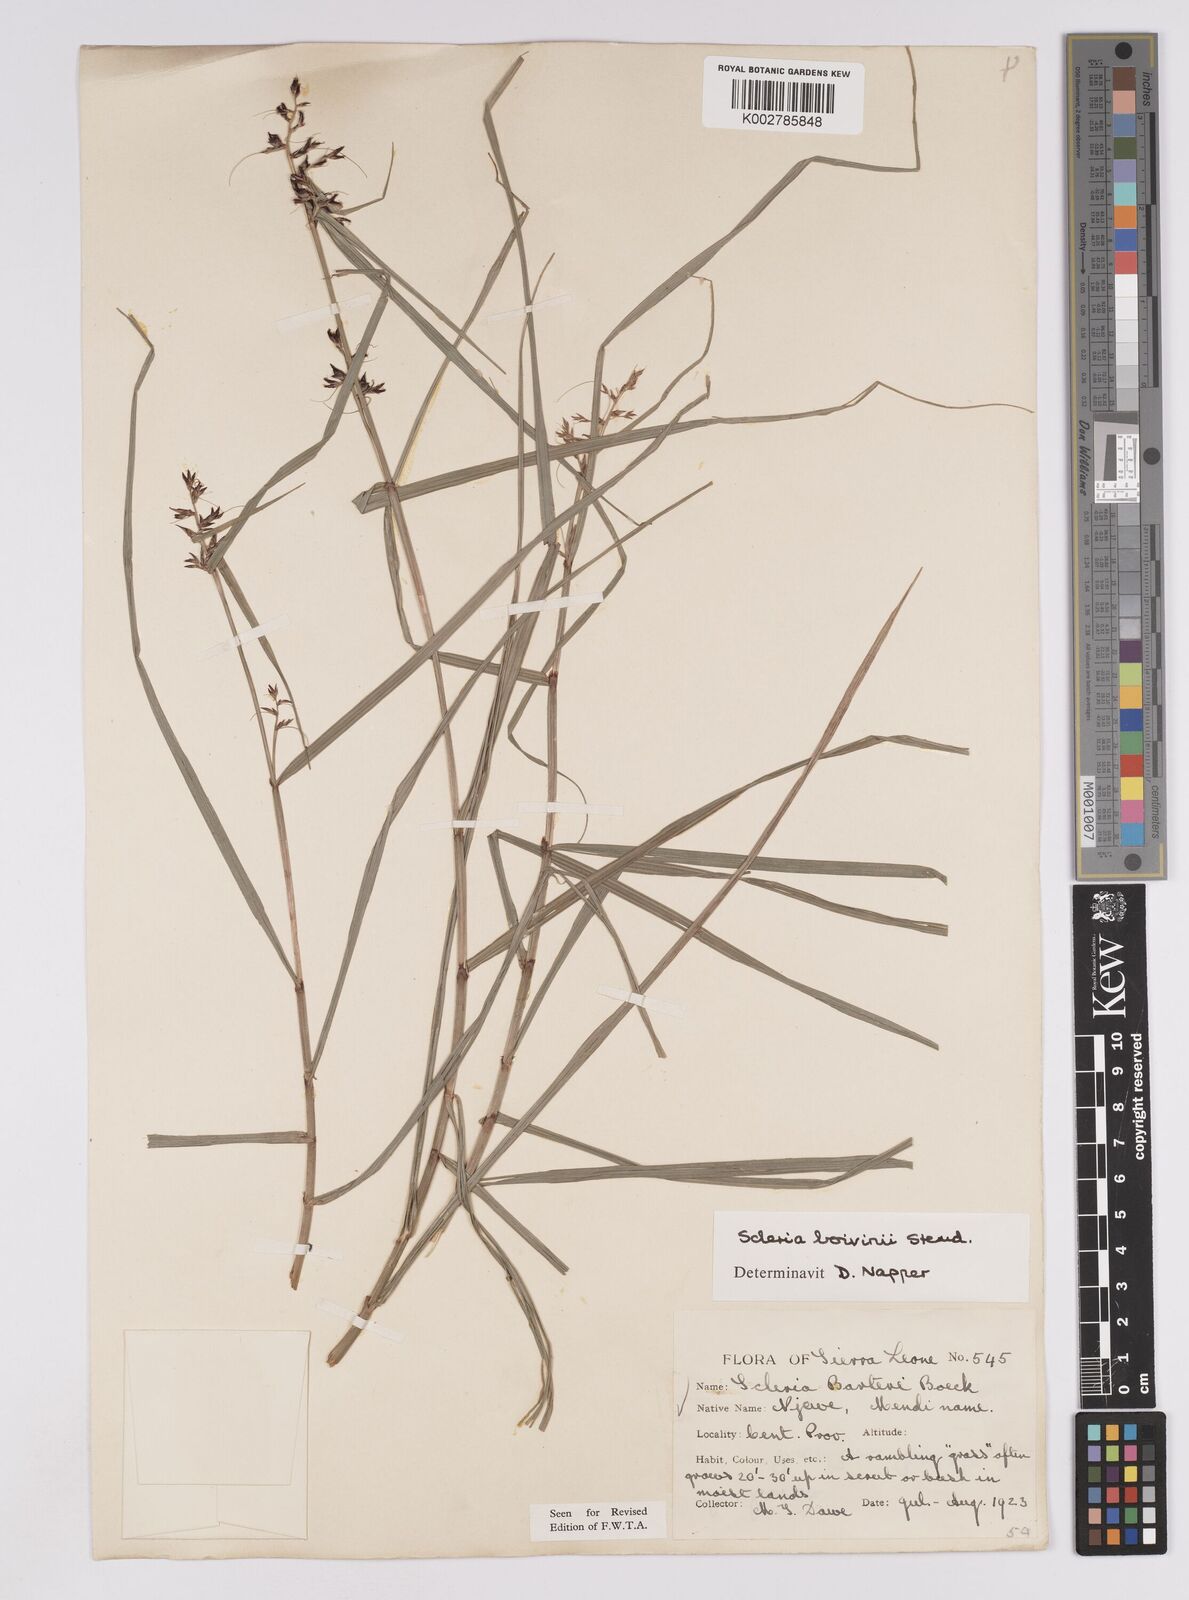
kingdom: Plantae
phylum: Tracheophyta
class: Liliopsida
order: Poales
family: Cyperaceae
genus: Scleria
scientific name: Scleria boivinii
